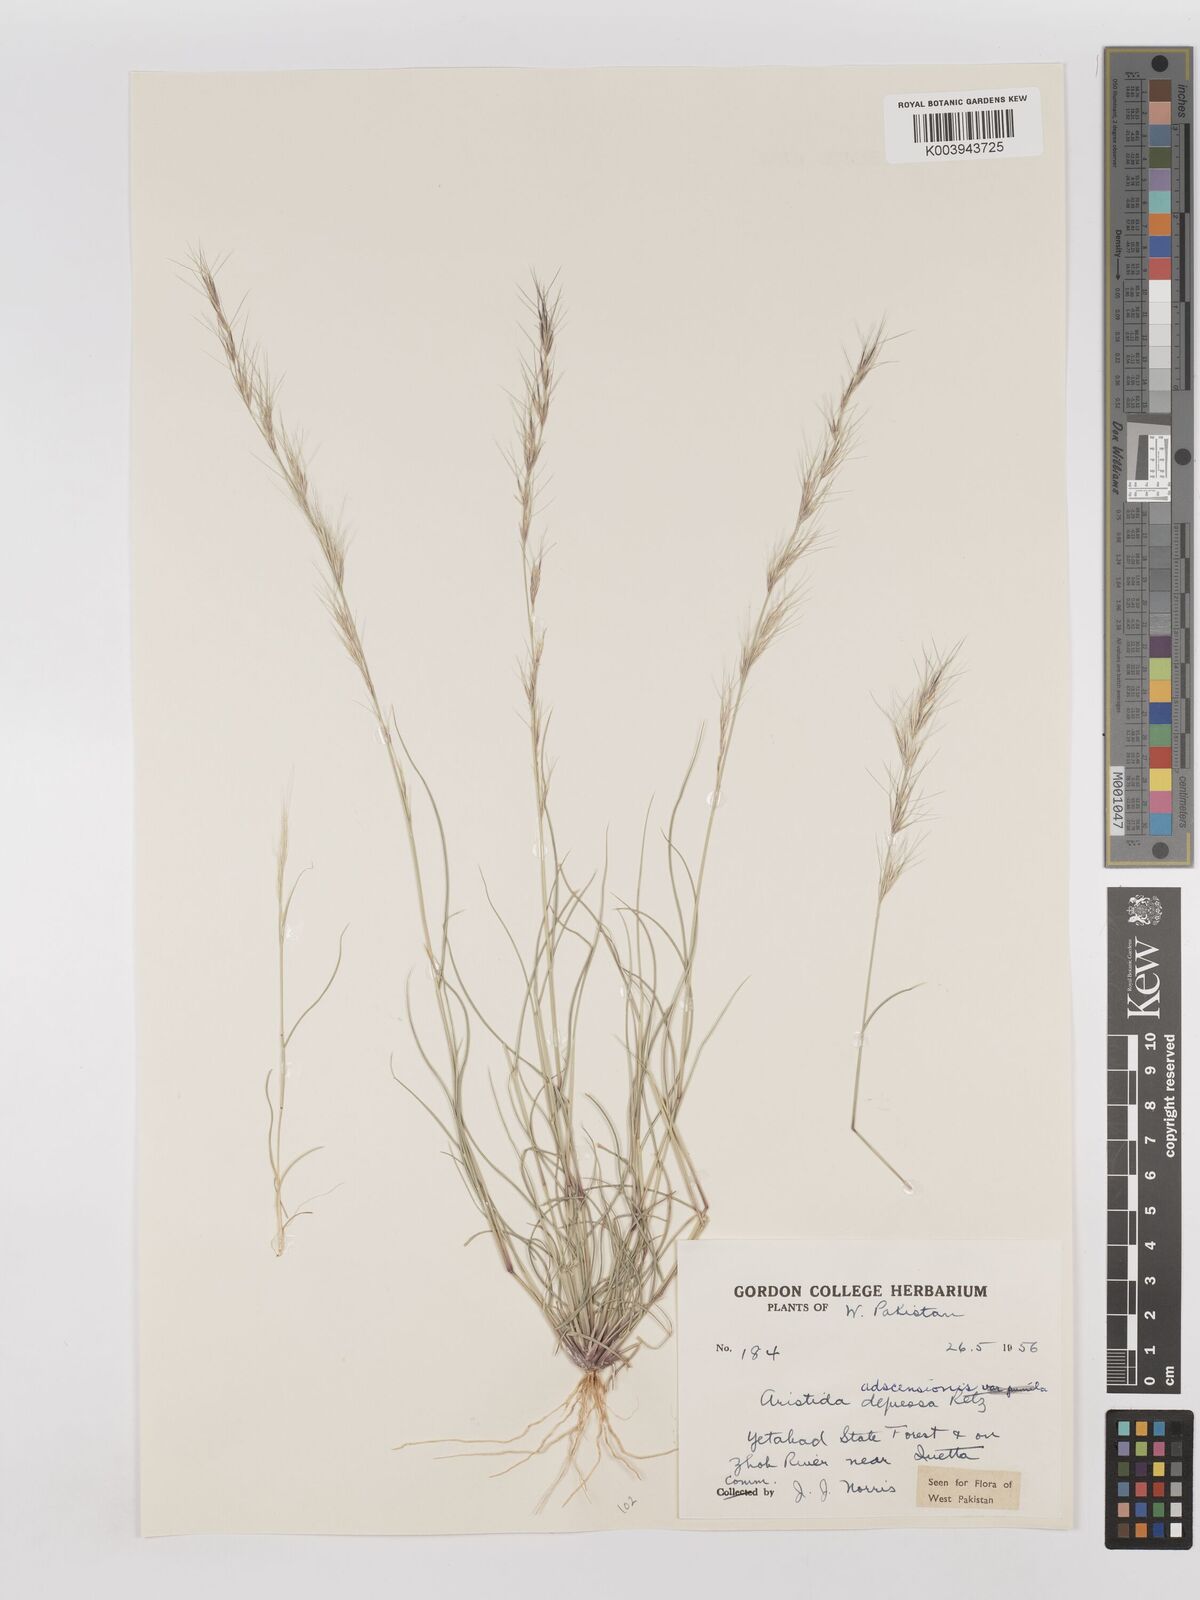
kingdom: Plantae
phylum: Tracheophyta
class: Liliopsida
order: Poales
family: Poaceae
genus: Aristida
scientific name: Aristida adscensionis
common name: Sixweeks threeawn
